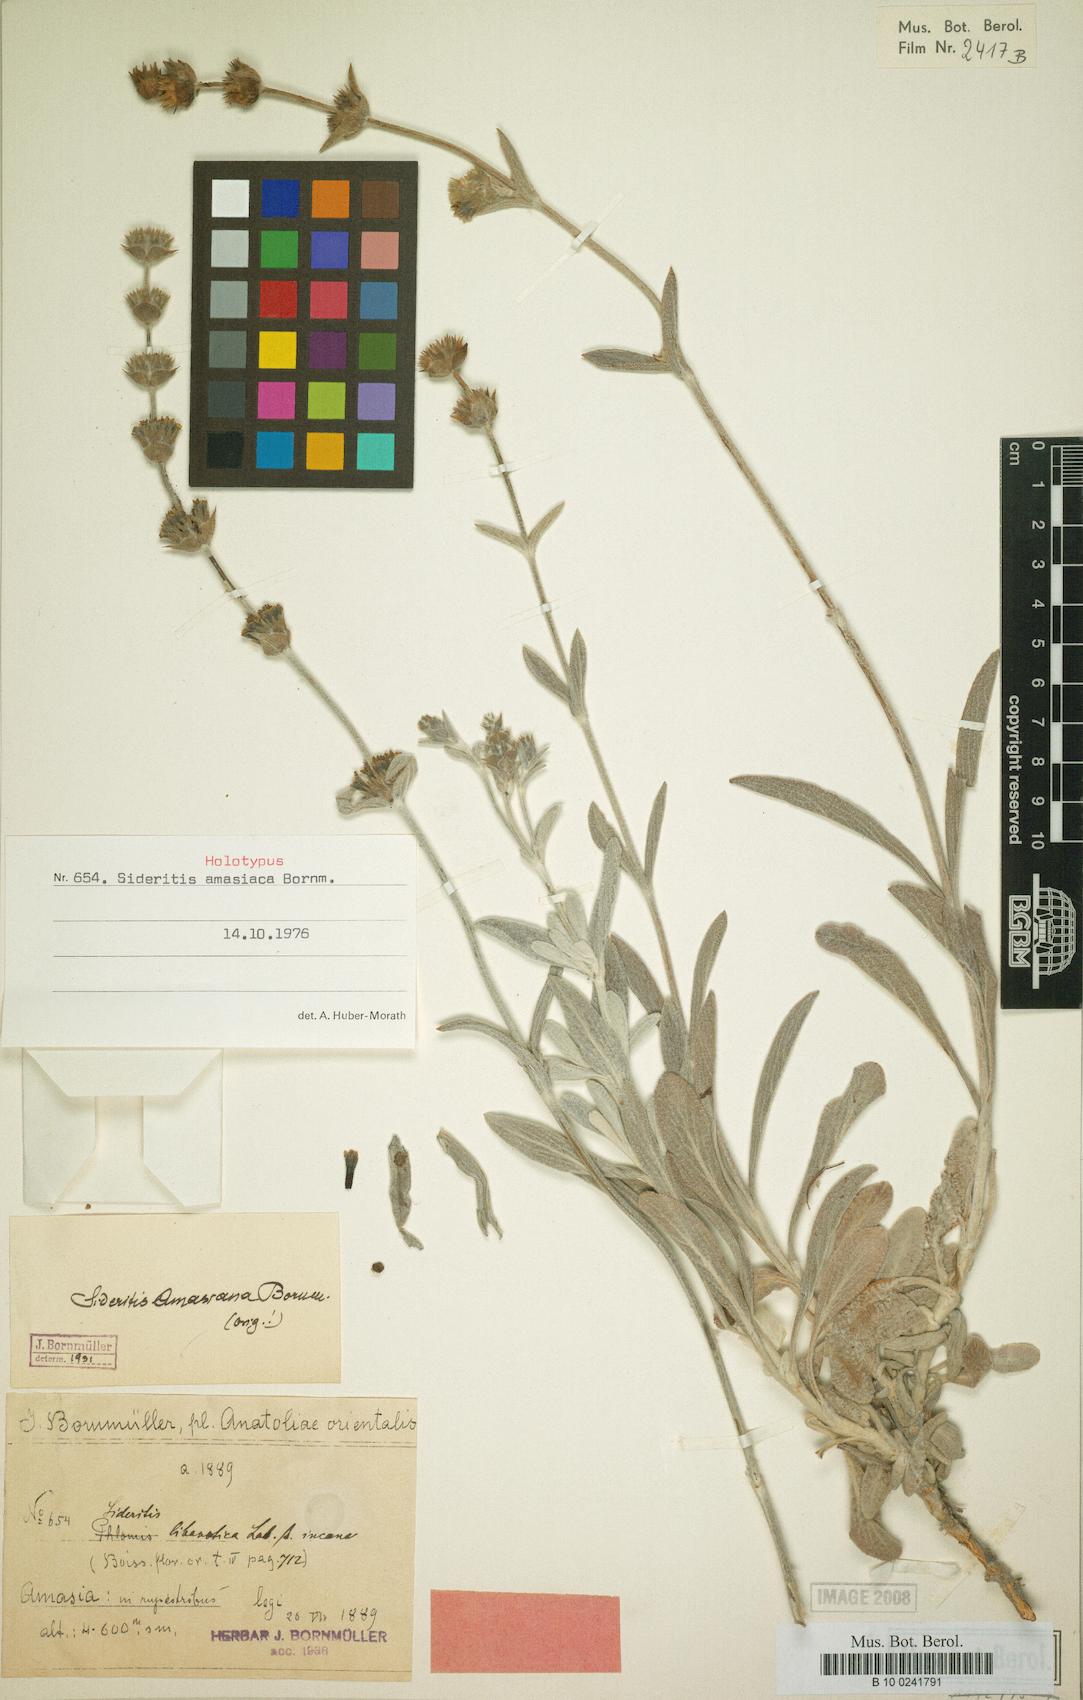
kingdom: Plantae
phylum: Tracheophyta
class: Magnoliopsida
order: Lamiales
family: Lamiaceae
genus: Sideritis
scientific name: Sideritis amasiaca
